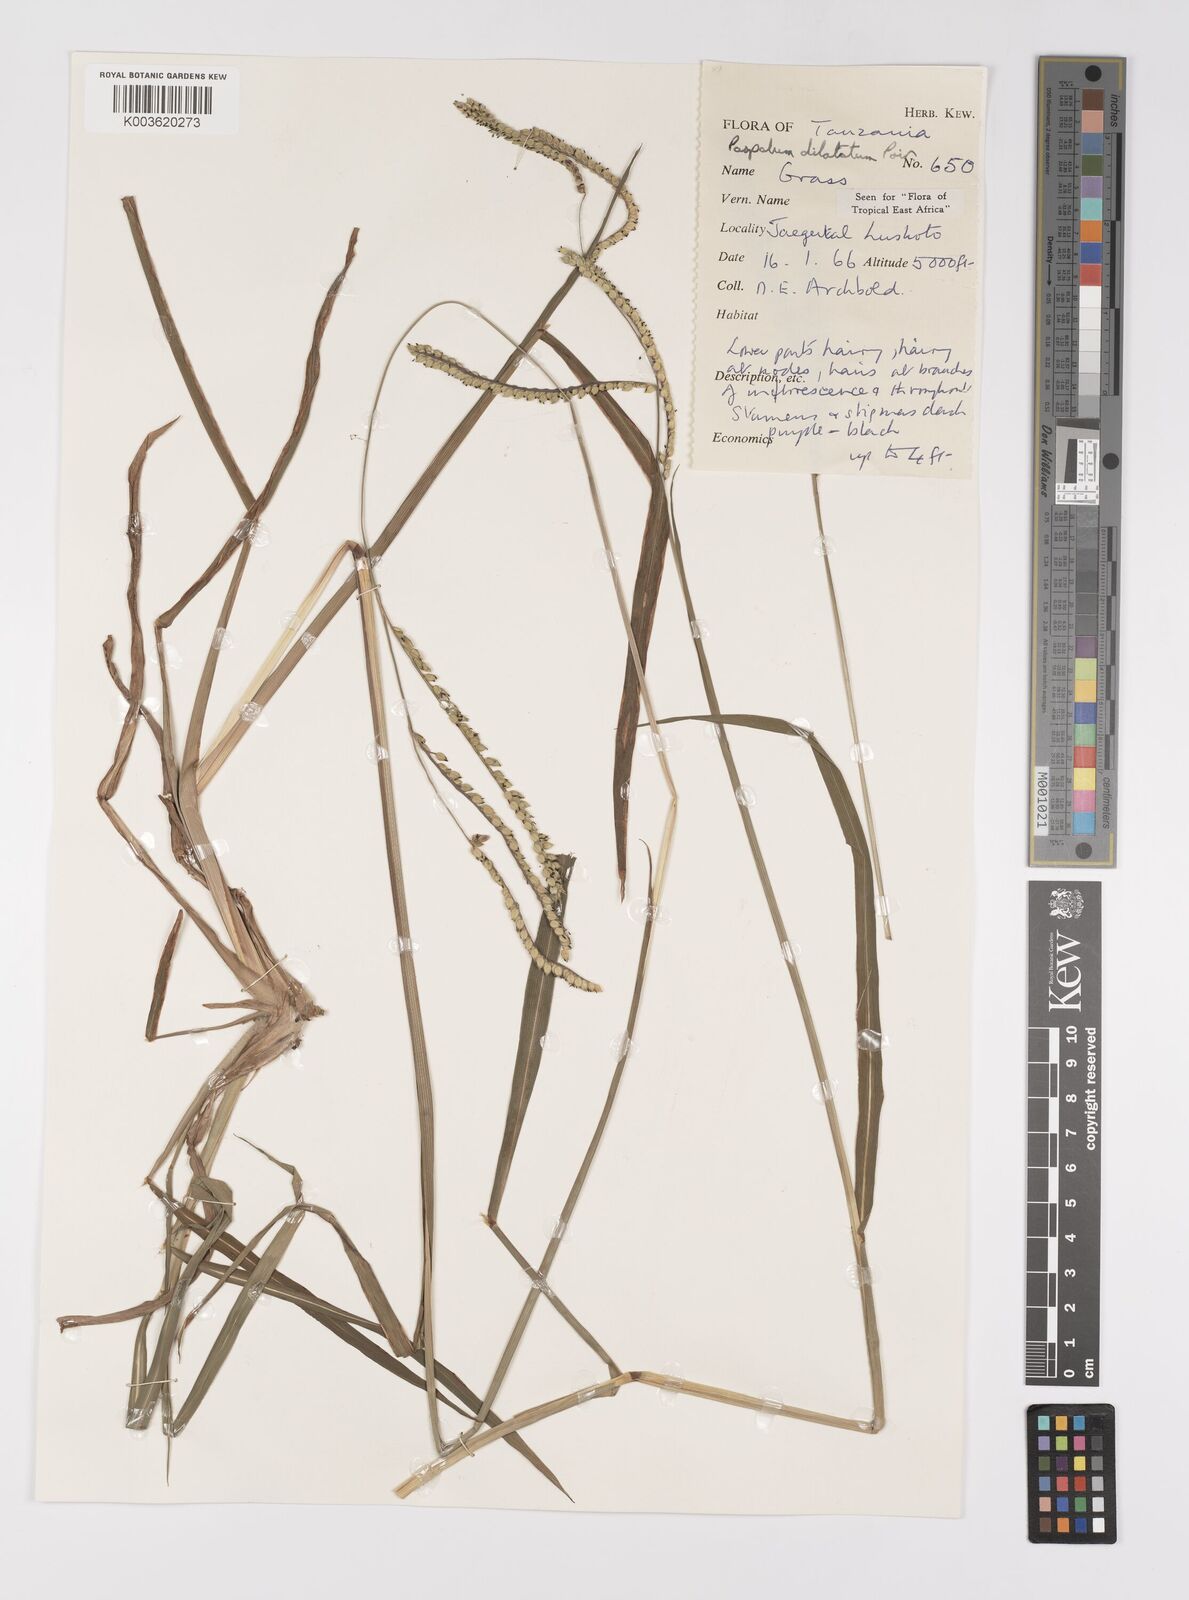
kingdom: Plantae
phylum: Tracheophyta
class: Liliopsida
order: Poales
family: Poaceae
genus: Paspalum
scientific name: Paspalum dilatatum
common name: Dallisgrass
